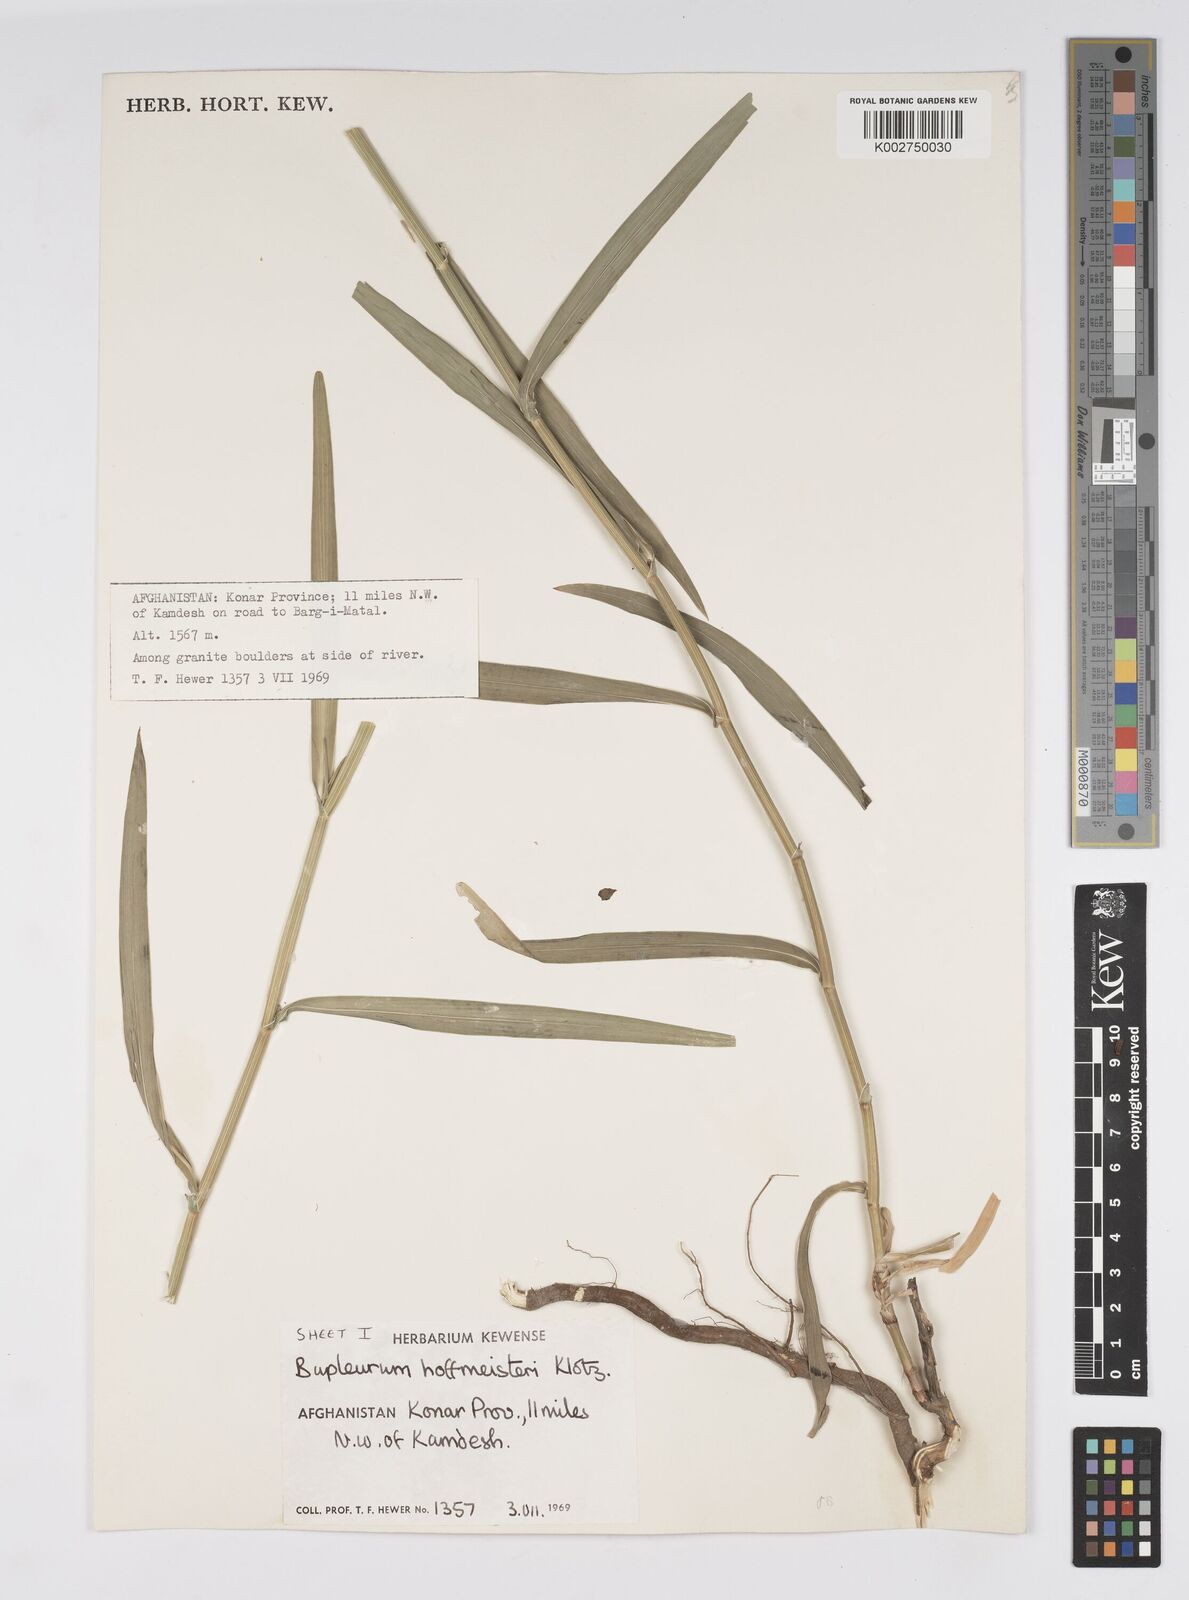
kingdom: Plantae
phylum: Tracheophyta
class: Magnoliopsida
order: Apiales
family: Apiaceae
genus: Bupleurum
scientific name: Bupleurum marginatum
